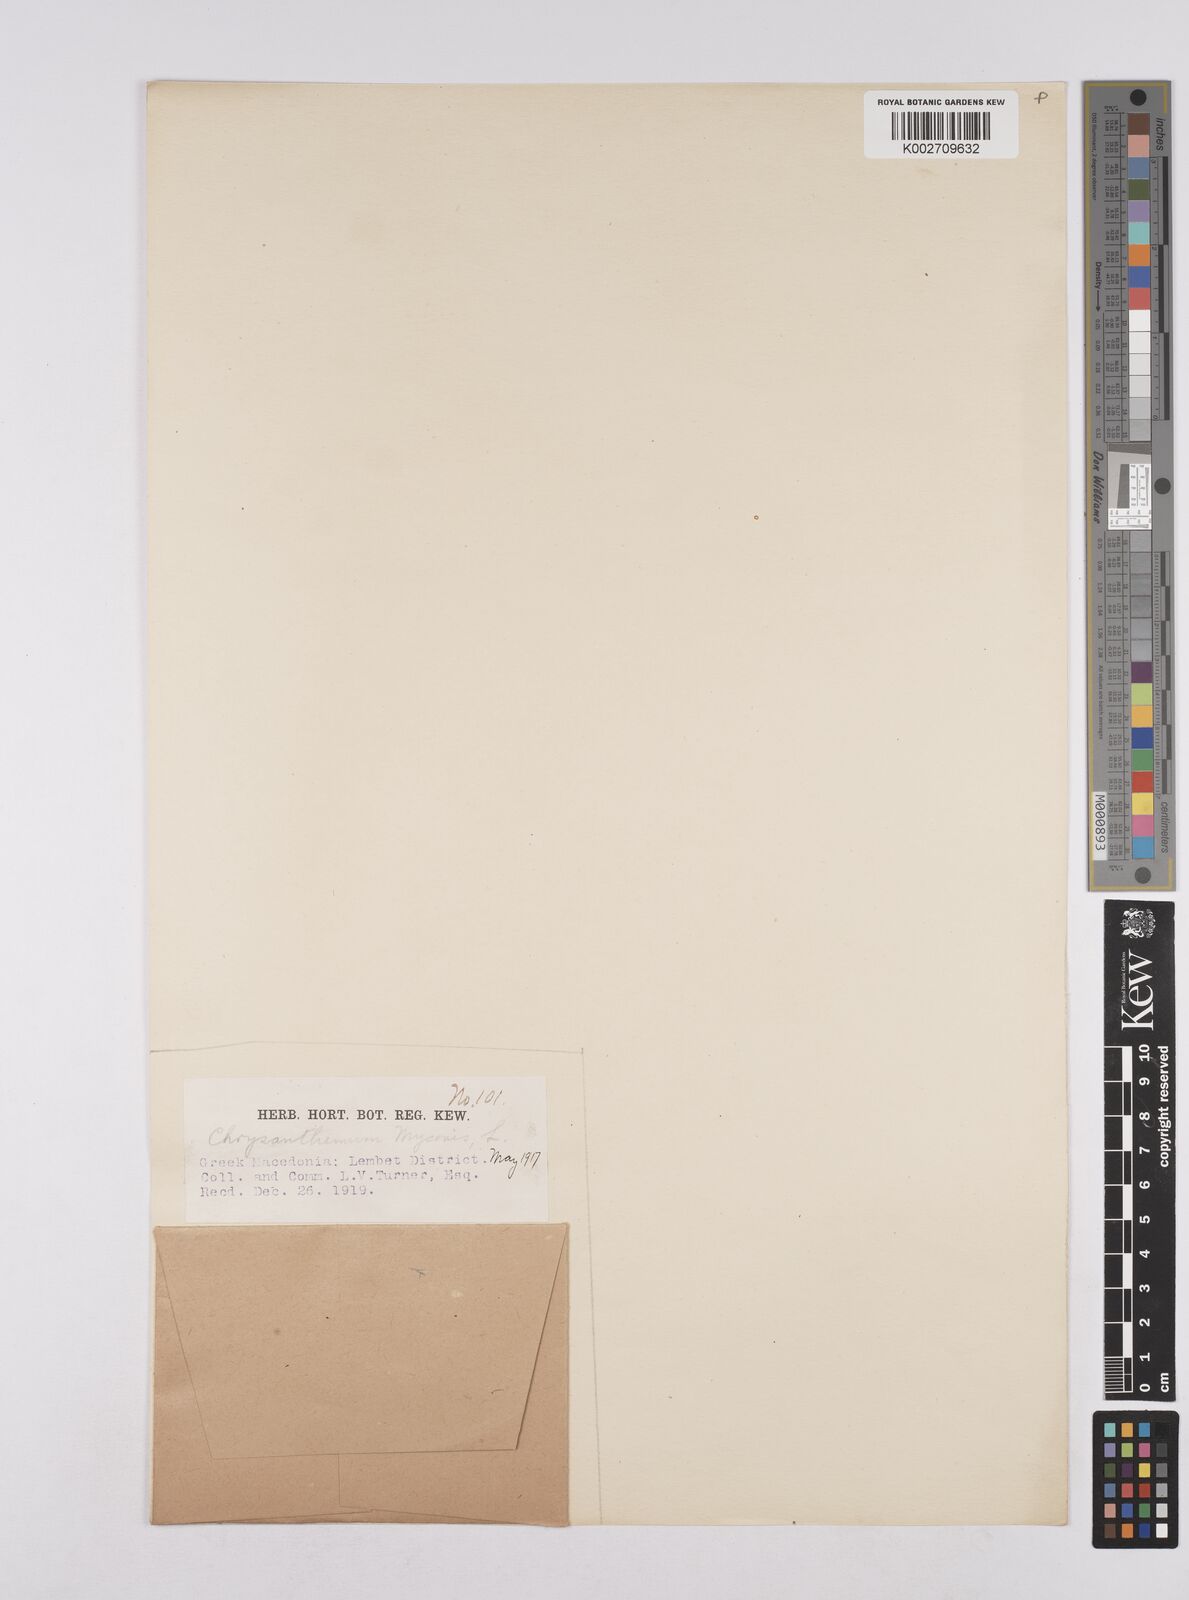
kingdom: Plantae
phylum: Tracheophyta
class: Magnoliopsida
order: Asterales
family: Asteraceae
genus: Coleostephus
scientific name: Coleostephus myconis
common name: Mediterranean marigold
